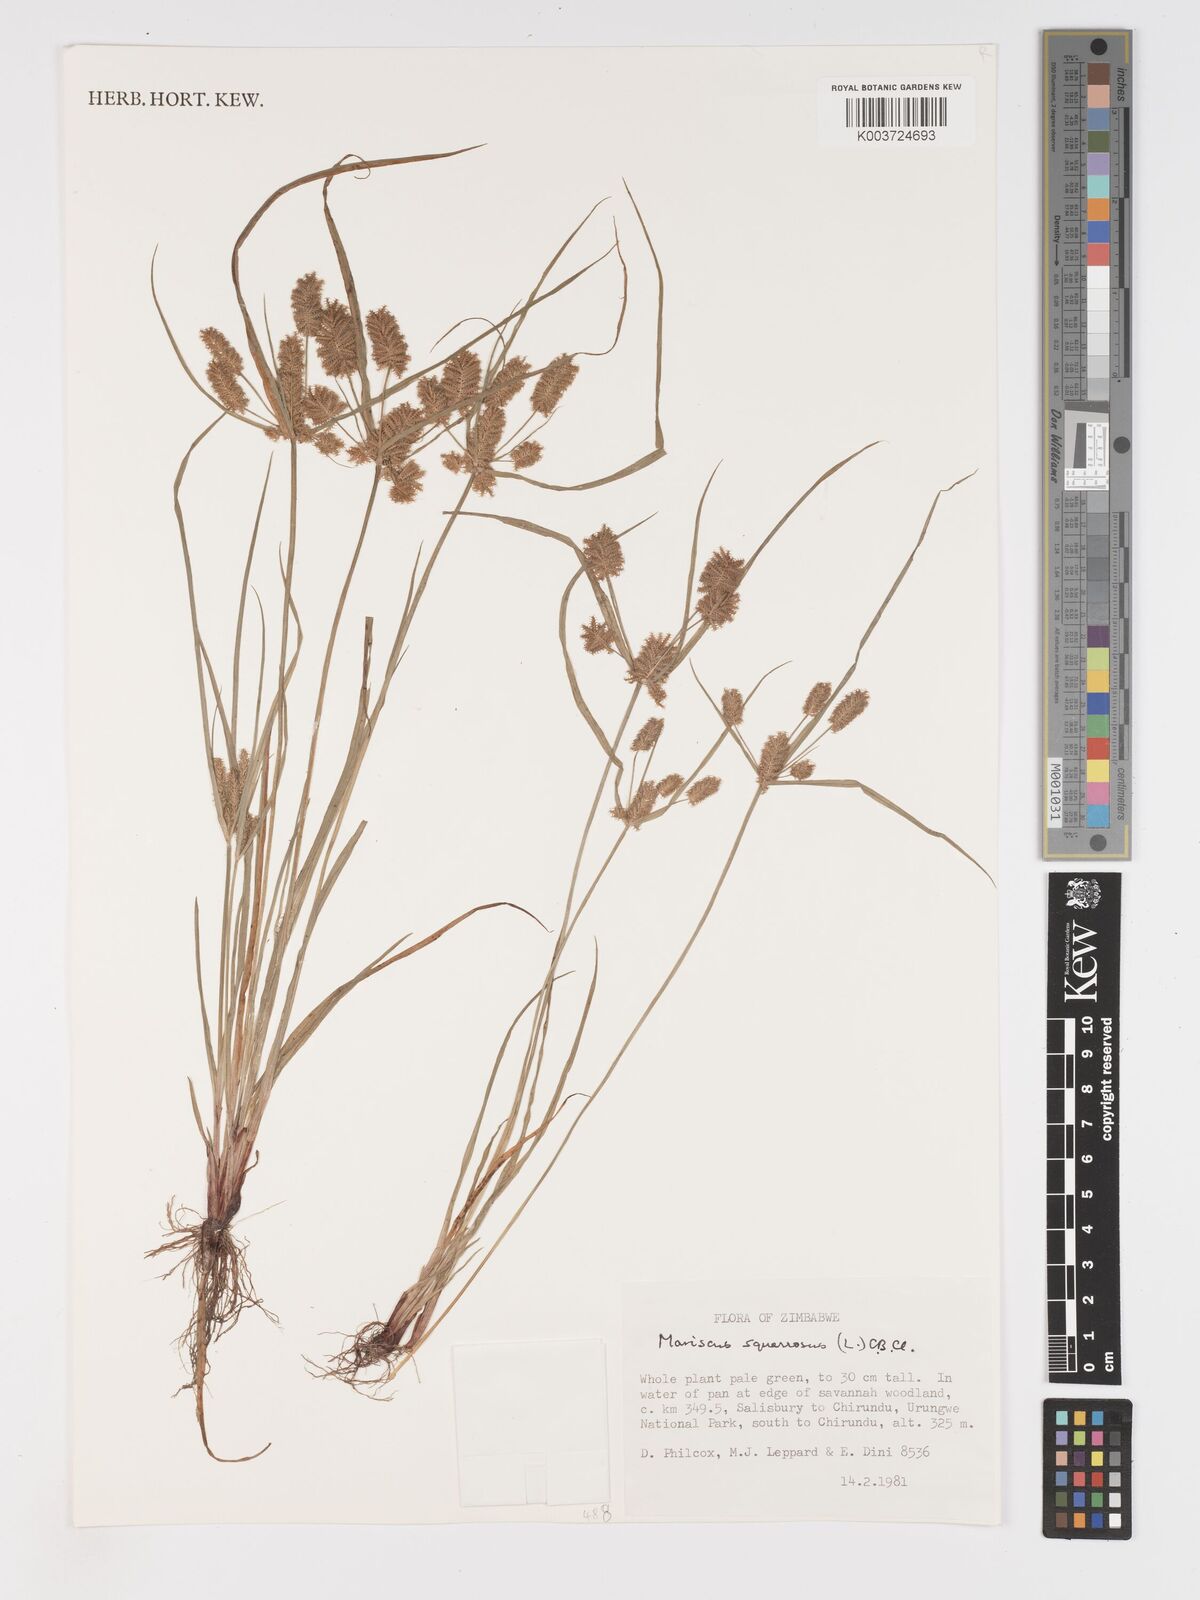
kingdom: Plantae
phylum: Tracheophyta
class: Liliopsida
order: Poales
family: Cyperaceae
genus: Cyperus
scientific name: Cyperus squarrosus
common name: Awned cyperus
